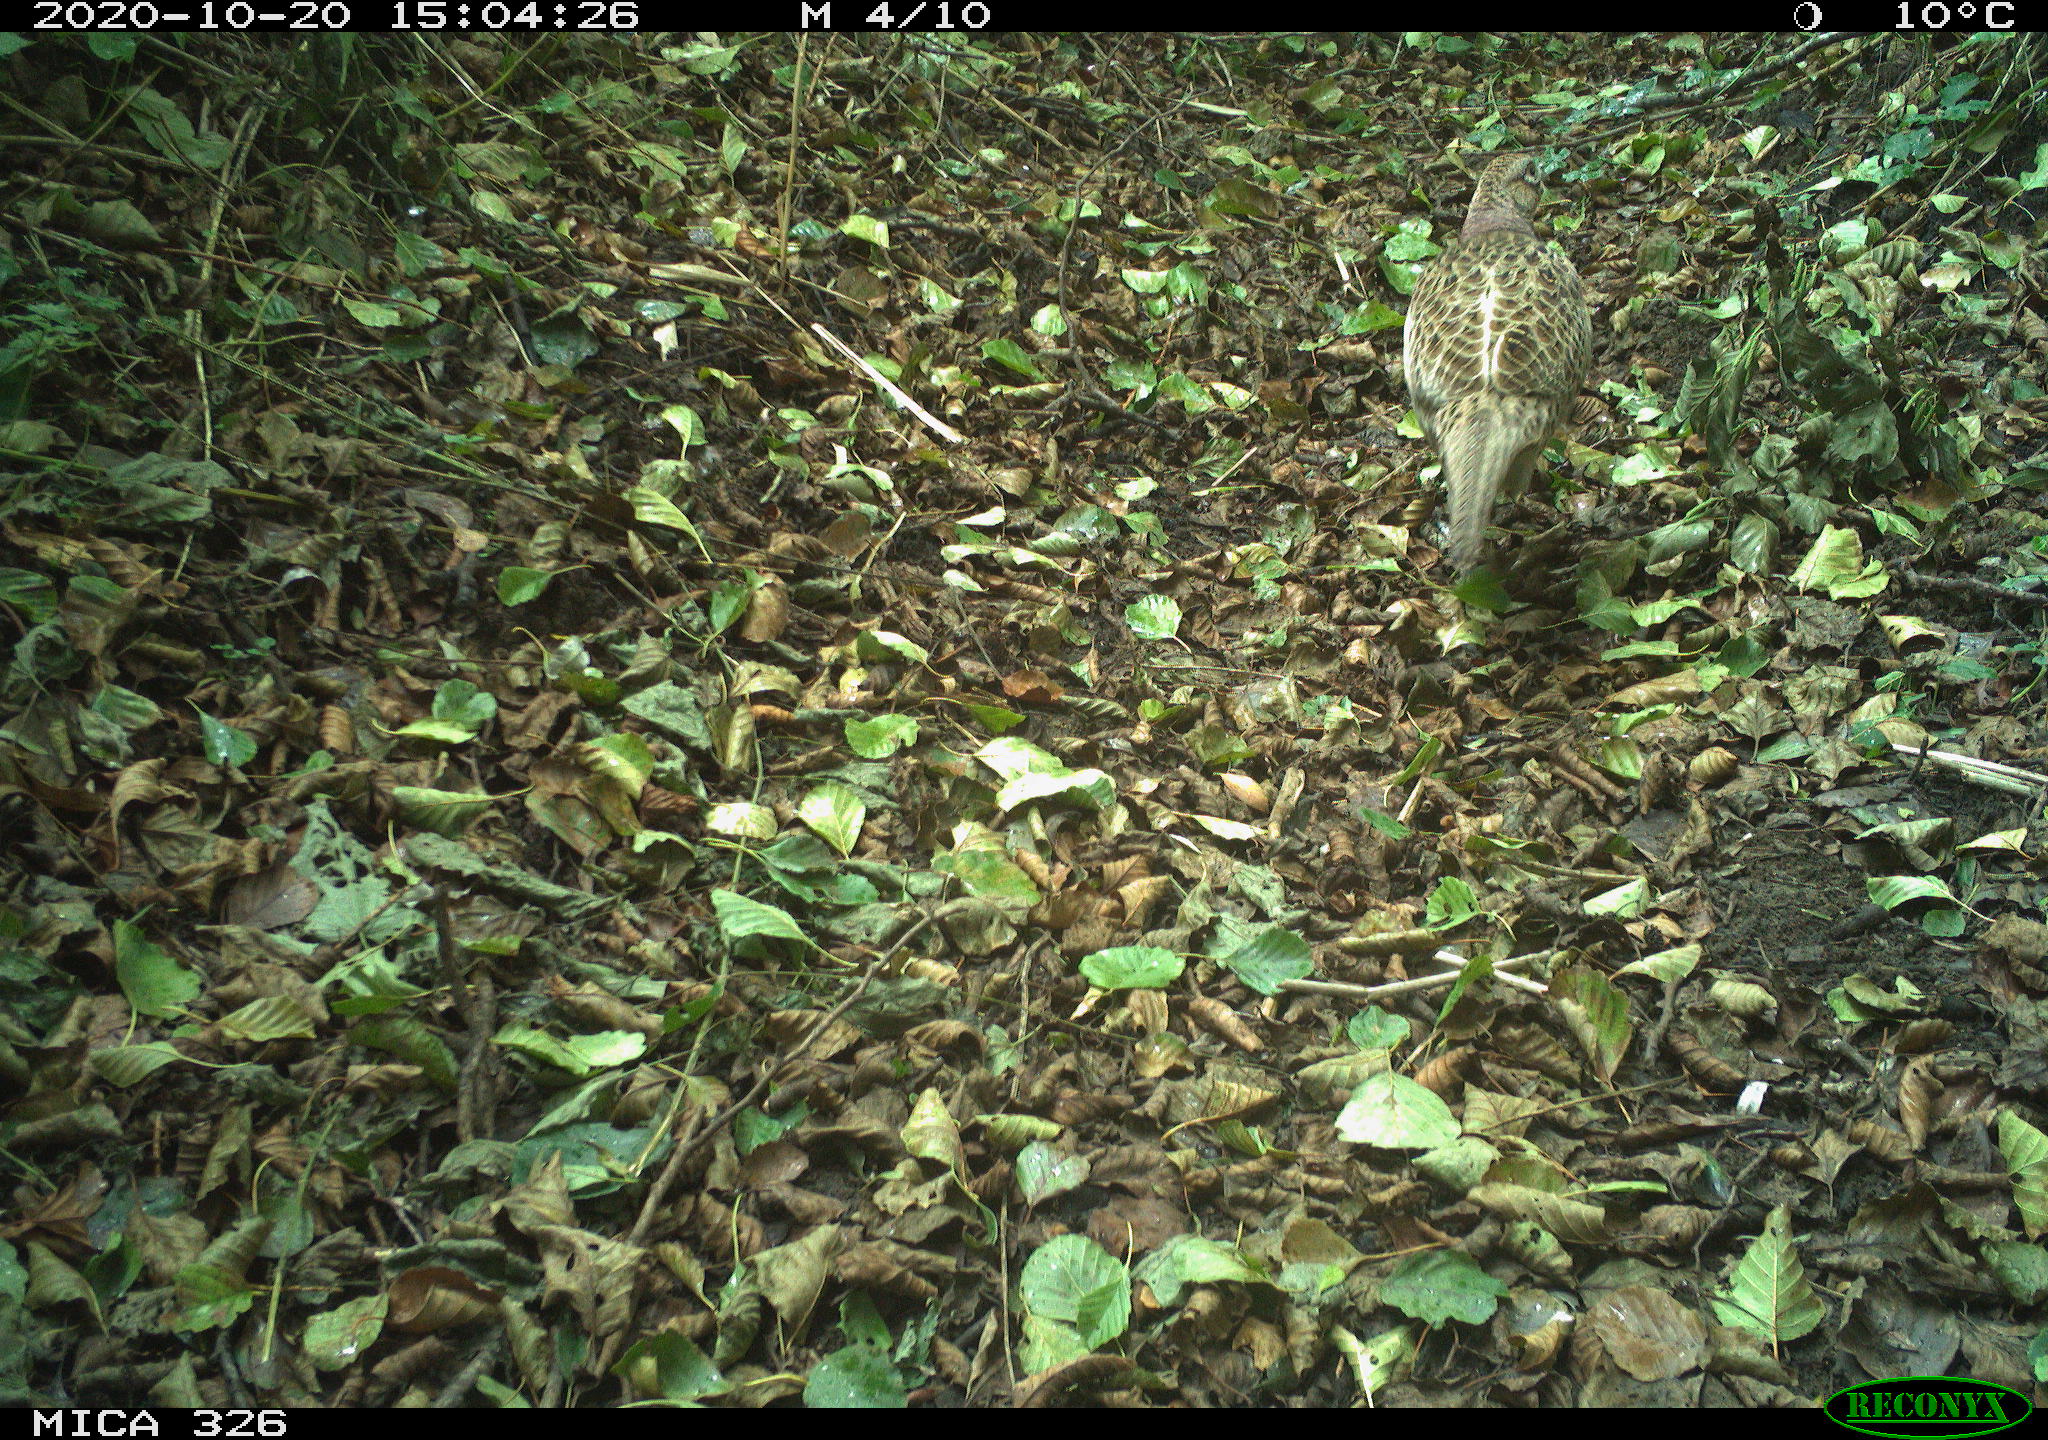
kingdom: Animalia
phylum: Chordata
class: Aves
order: Galliformes
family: Phasianidae
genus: Phasianus
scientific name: Phasianus colchicus
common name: Common pheasant
